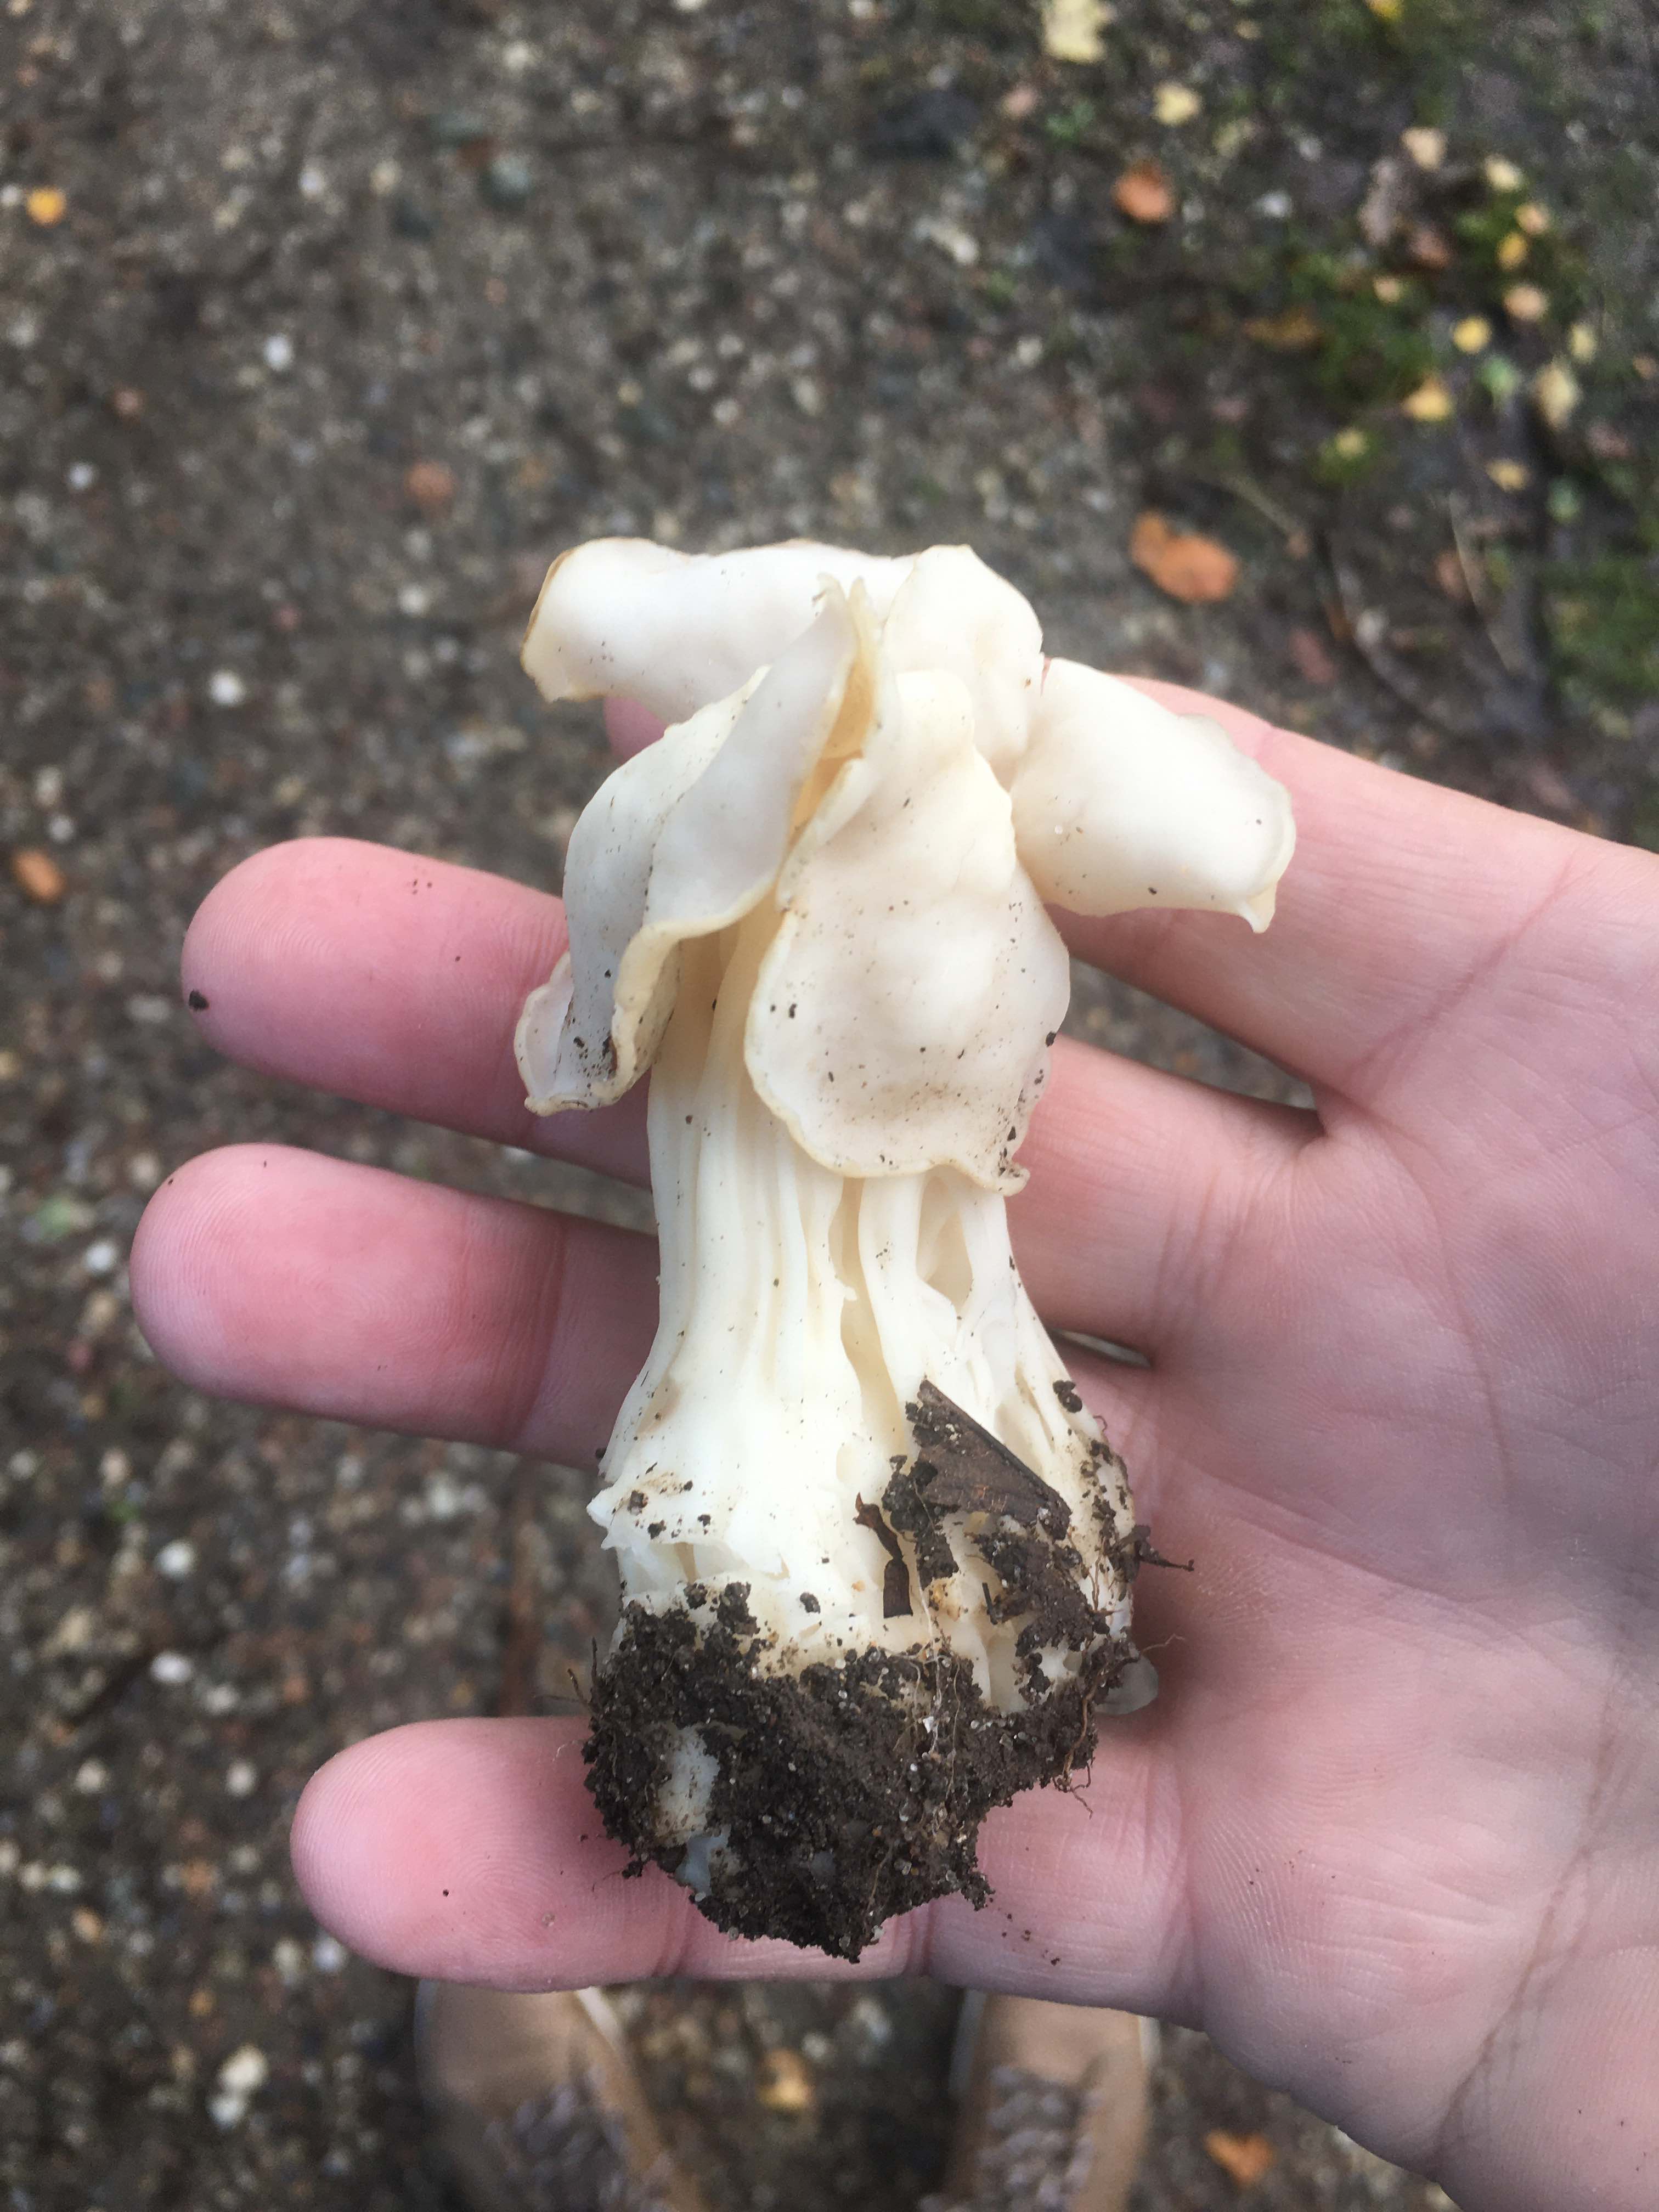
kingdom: Fungi
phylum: Ascomycota
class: Pezizomycetes
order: Pezizales
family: Helvellaceae
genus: Helvella
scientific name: Helvella crispa
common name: kruset foldhat
